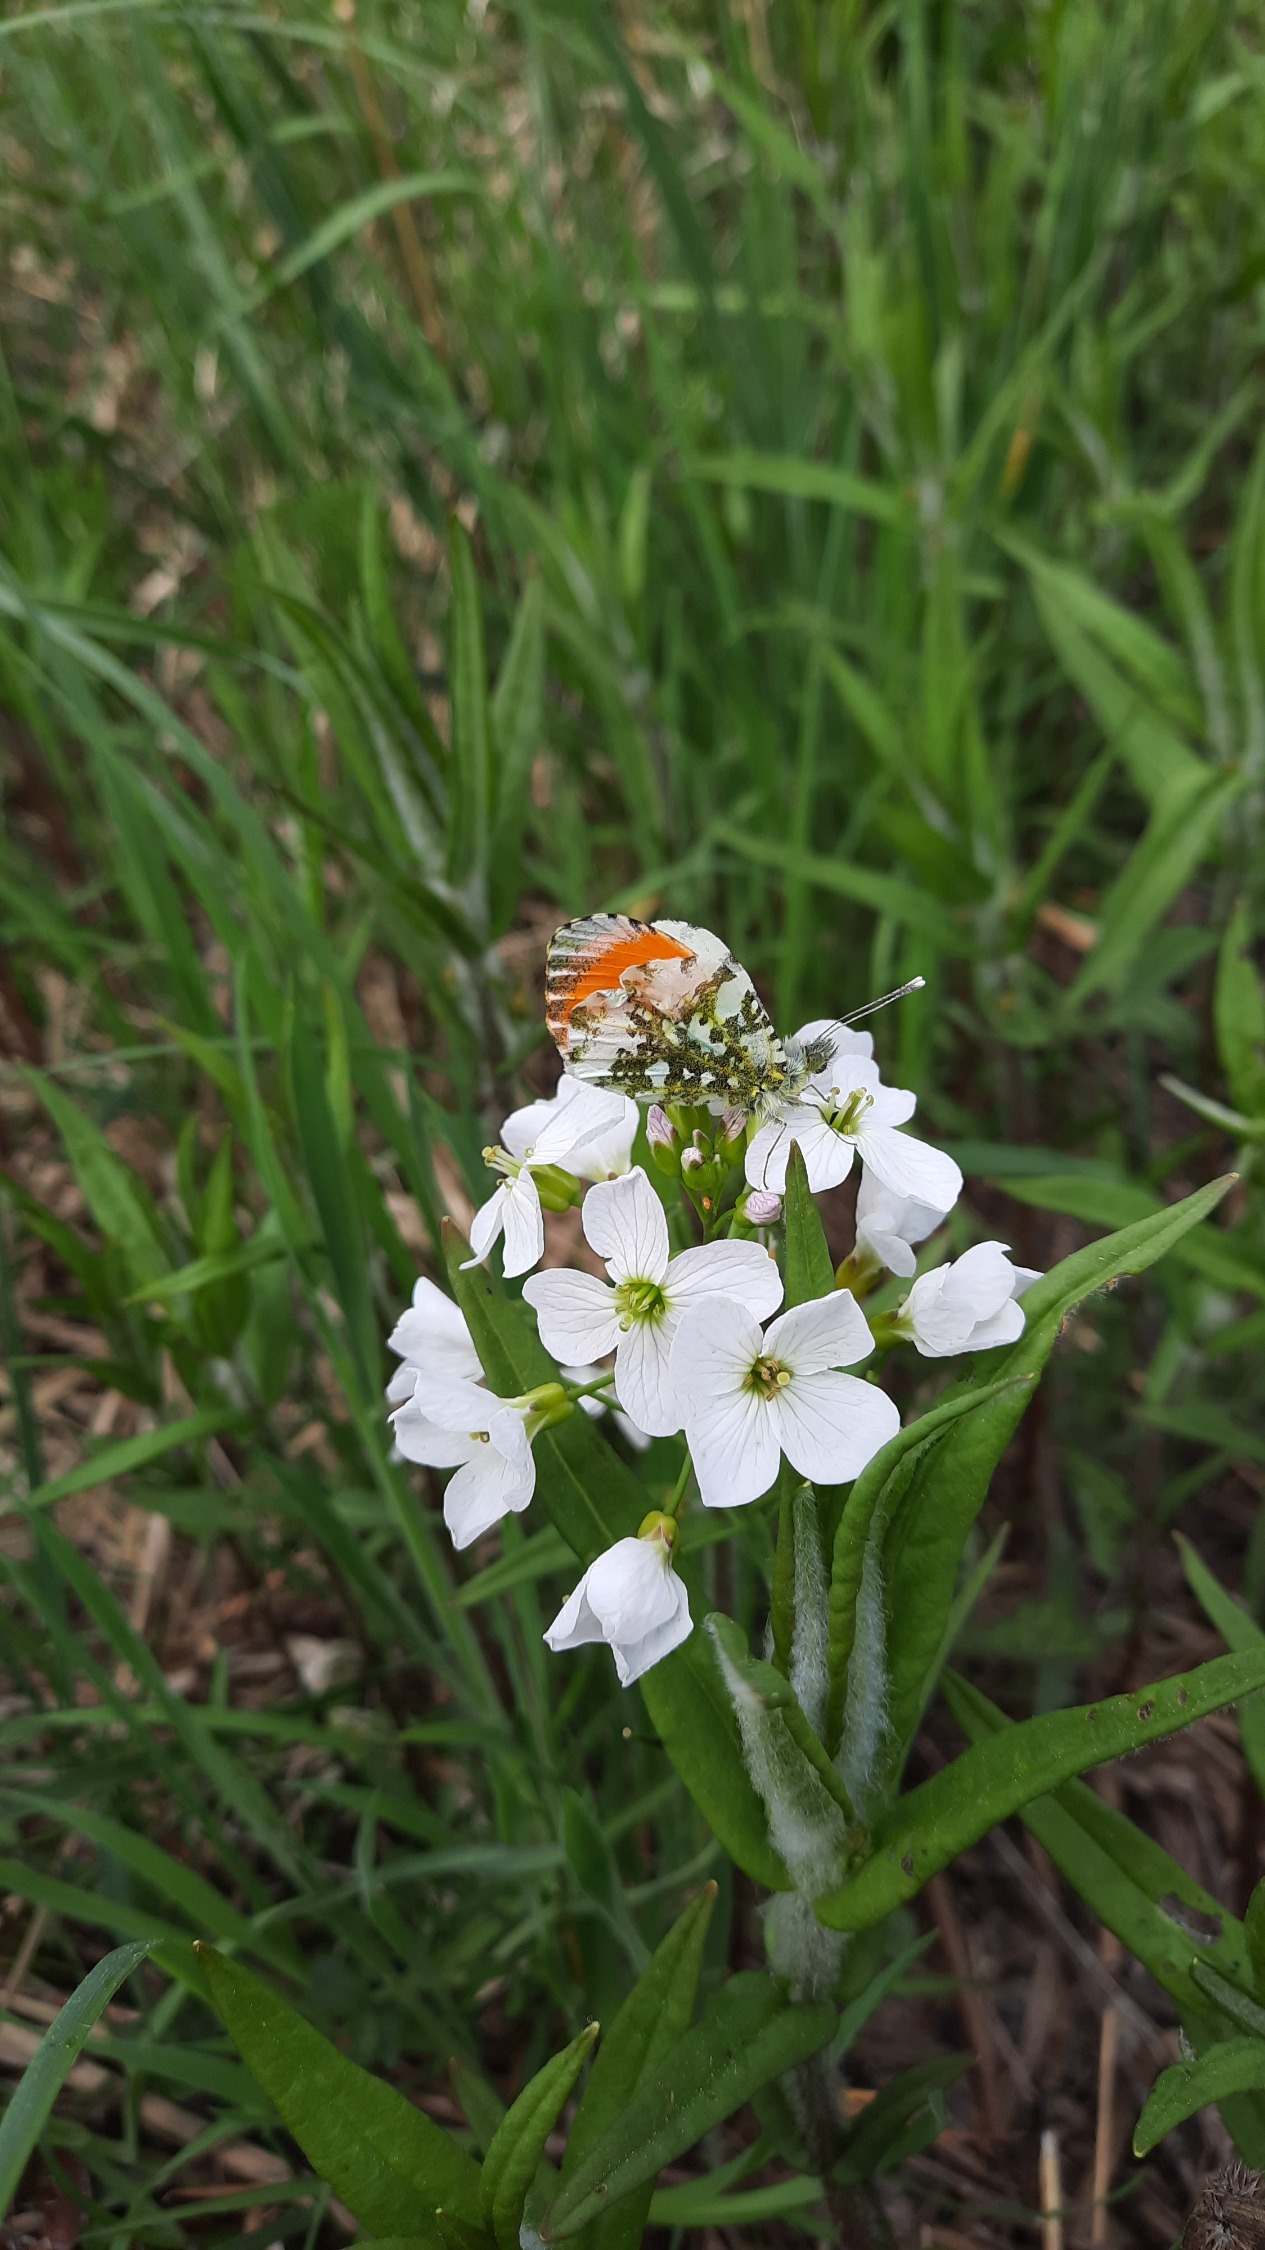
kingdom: Plantae
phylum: Tracheophyta
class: Magnoliopsida
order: Brassicales
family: Brassicaceae
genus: Cardamine
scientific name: Cardamine pratensis
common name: Engkarse
